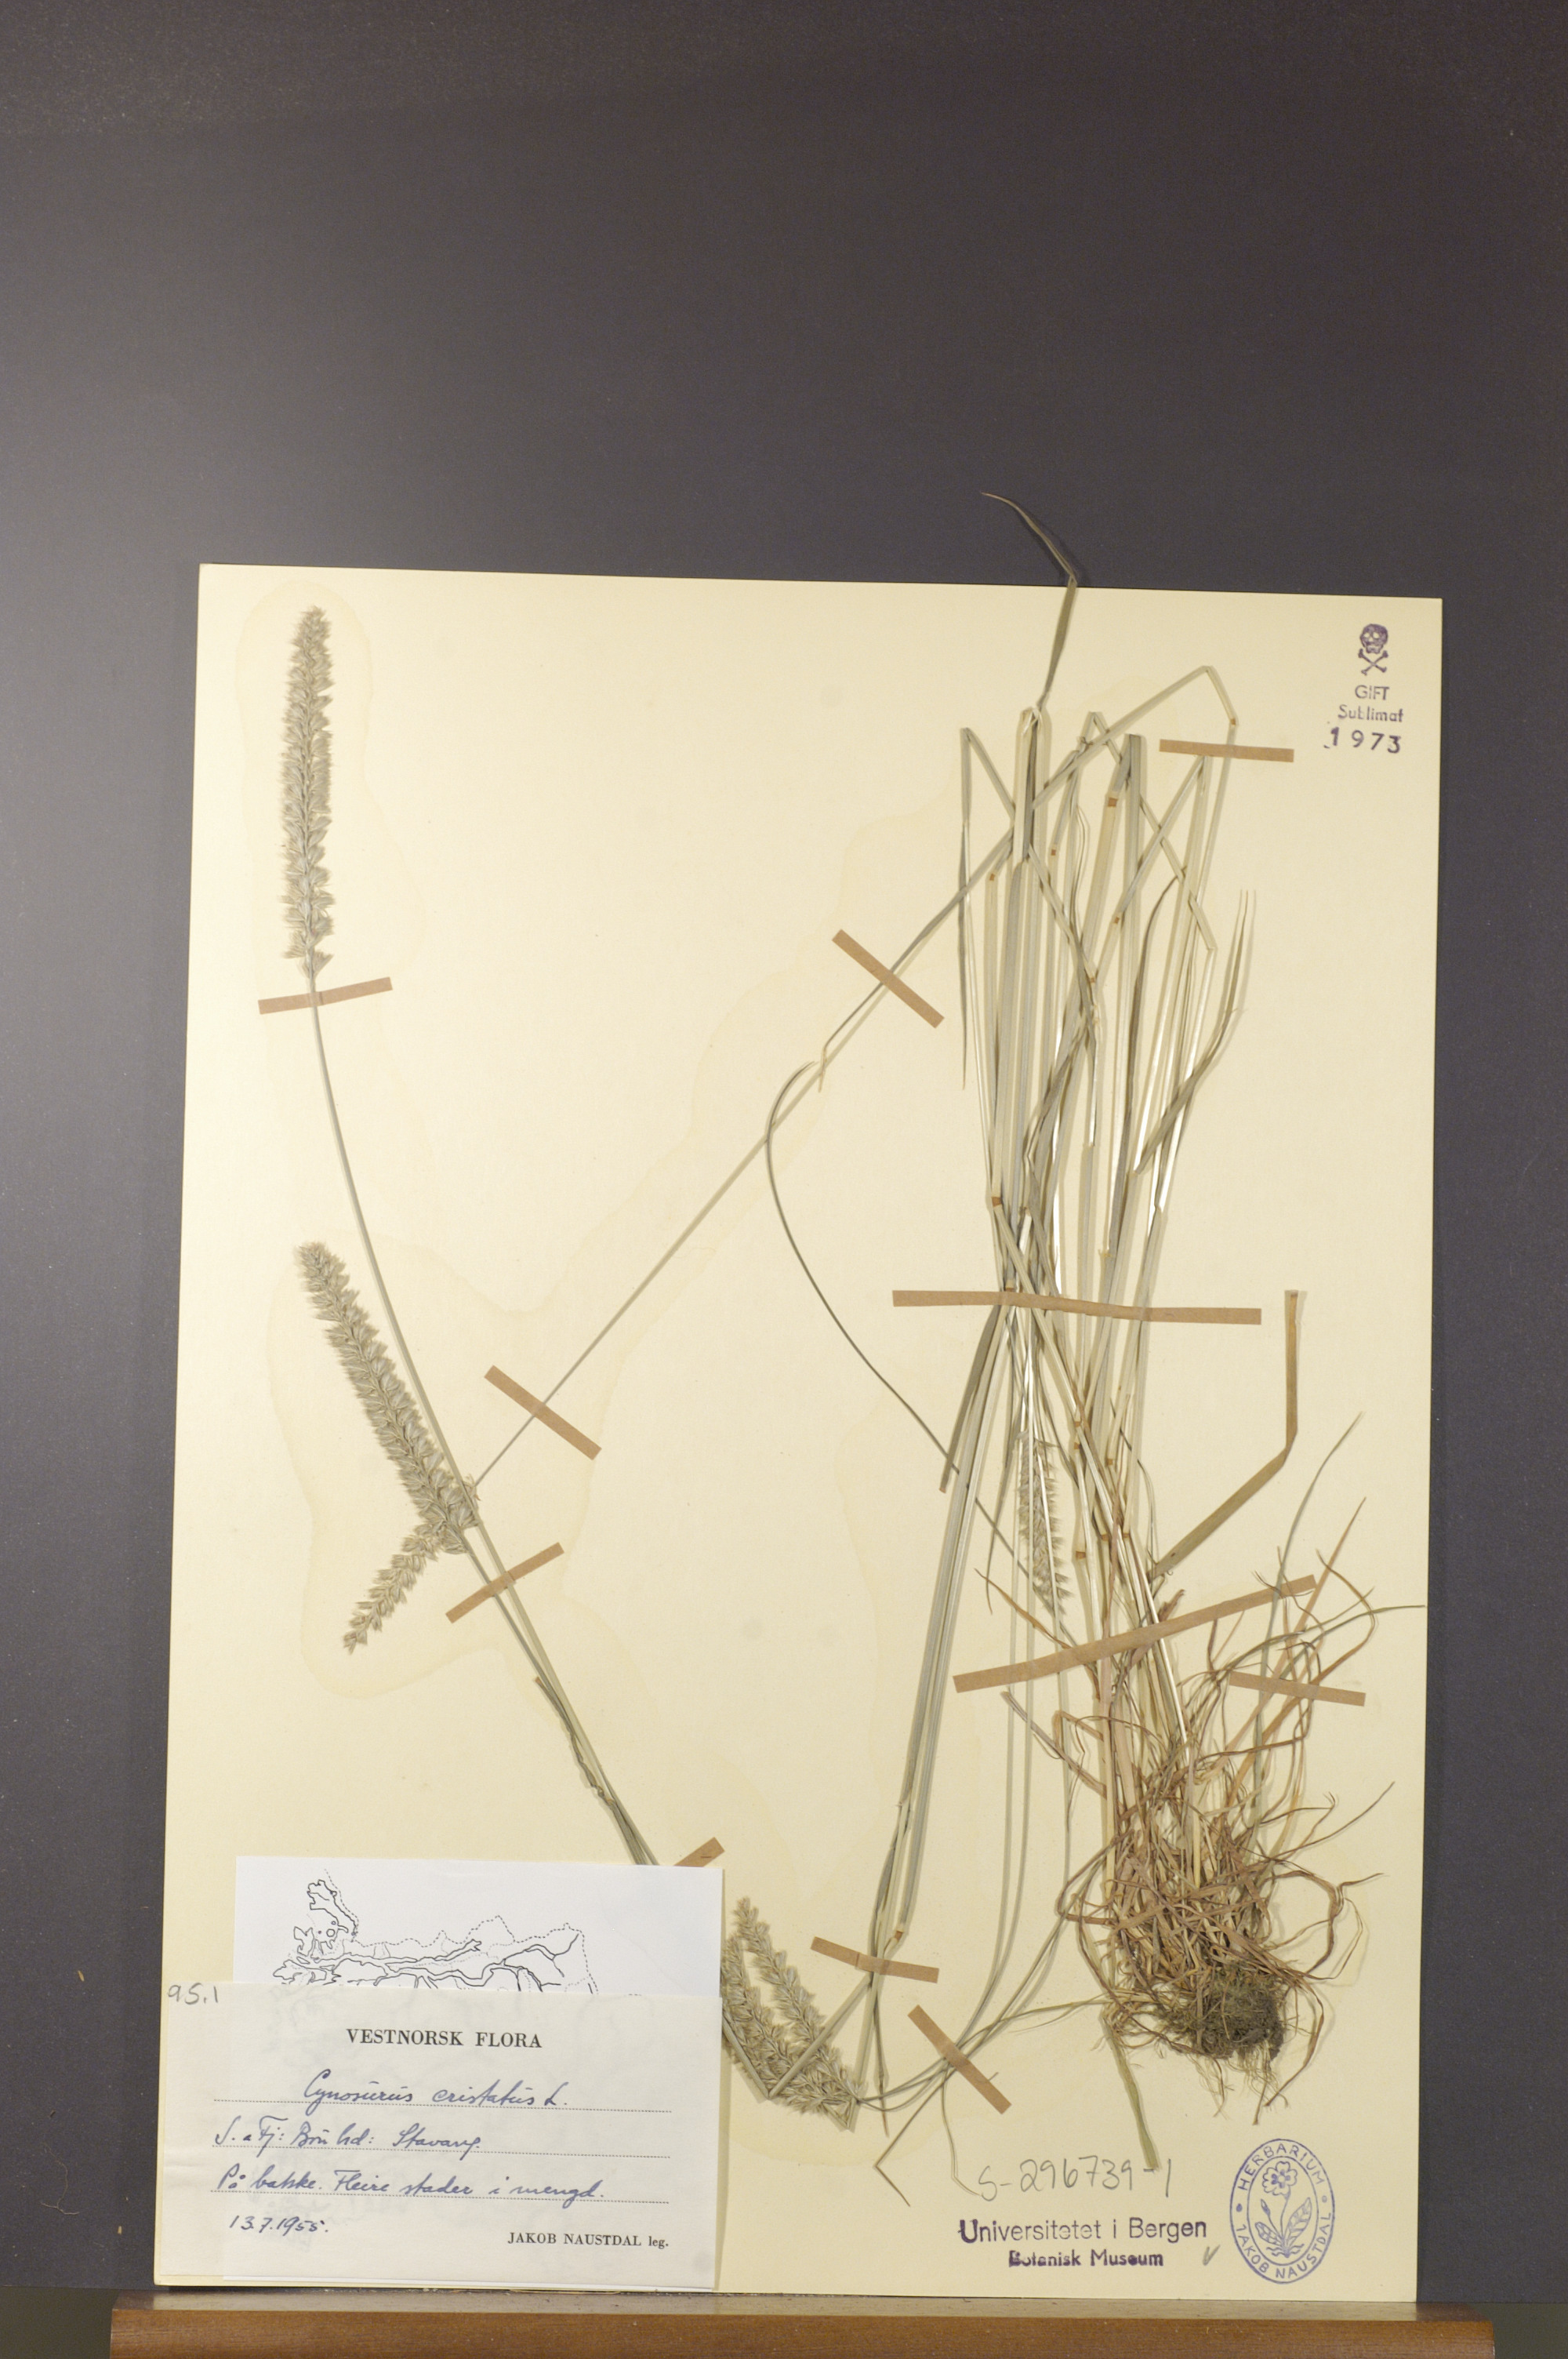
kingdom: Plantae
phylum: Tracheophyta
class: Liliopsida
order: Poales
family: Poaceae
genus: Cynosurus
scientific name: Cynosurus cristatus
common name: Crested dog's-tail
